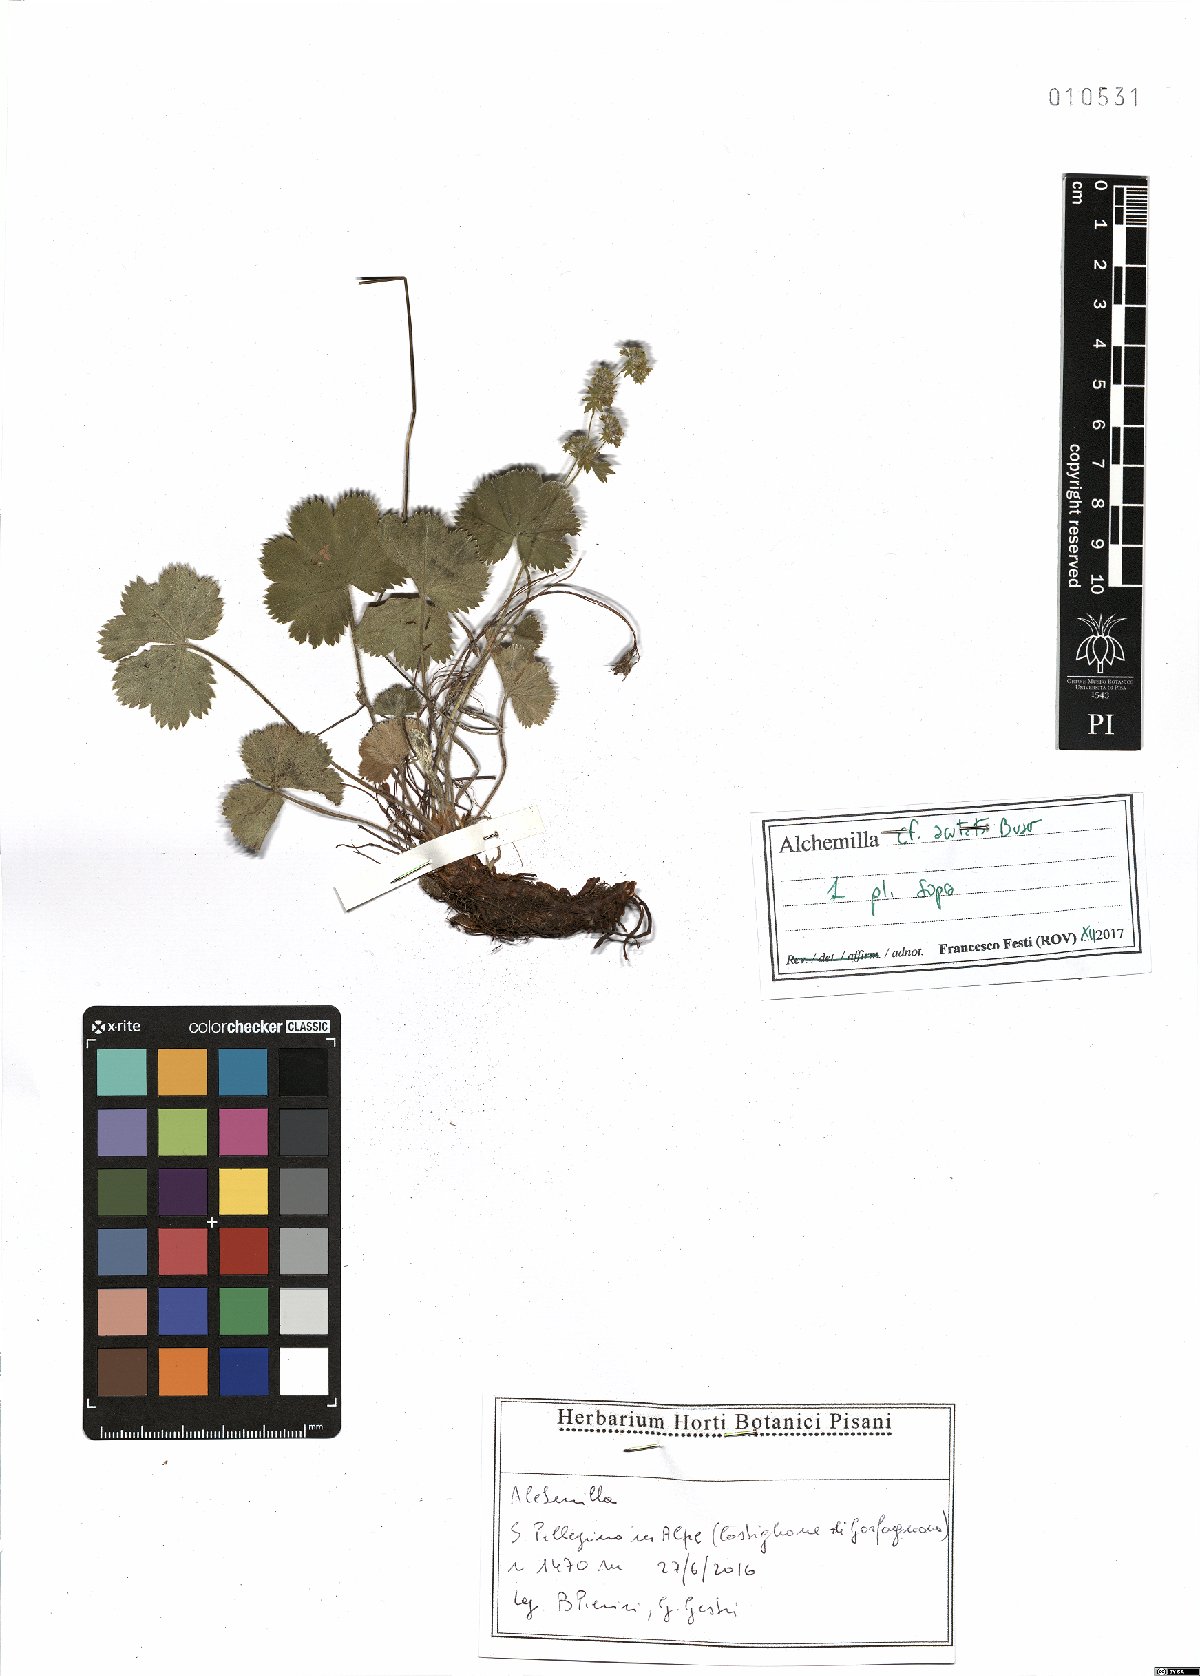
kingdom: Plantae
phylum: Tracheophyta
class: Magnoliopsida
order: Rosales
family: Rosaceae
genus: Alchemilla
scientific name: Alchemilla acutata
